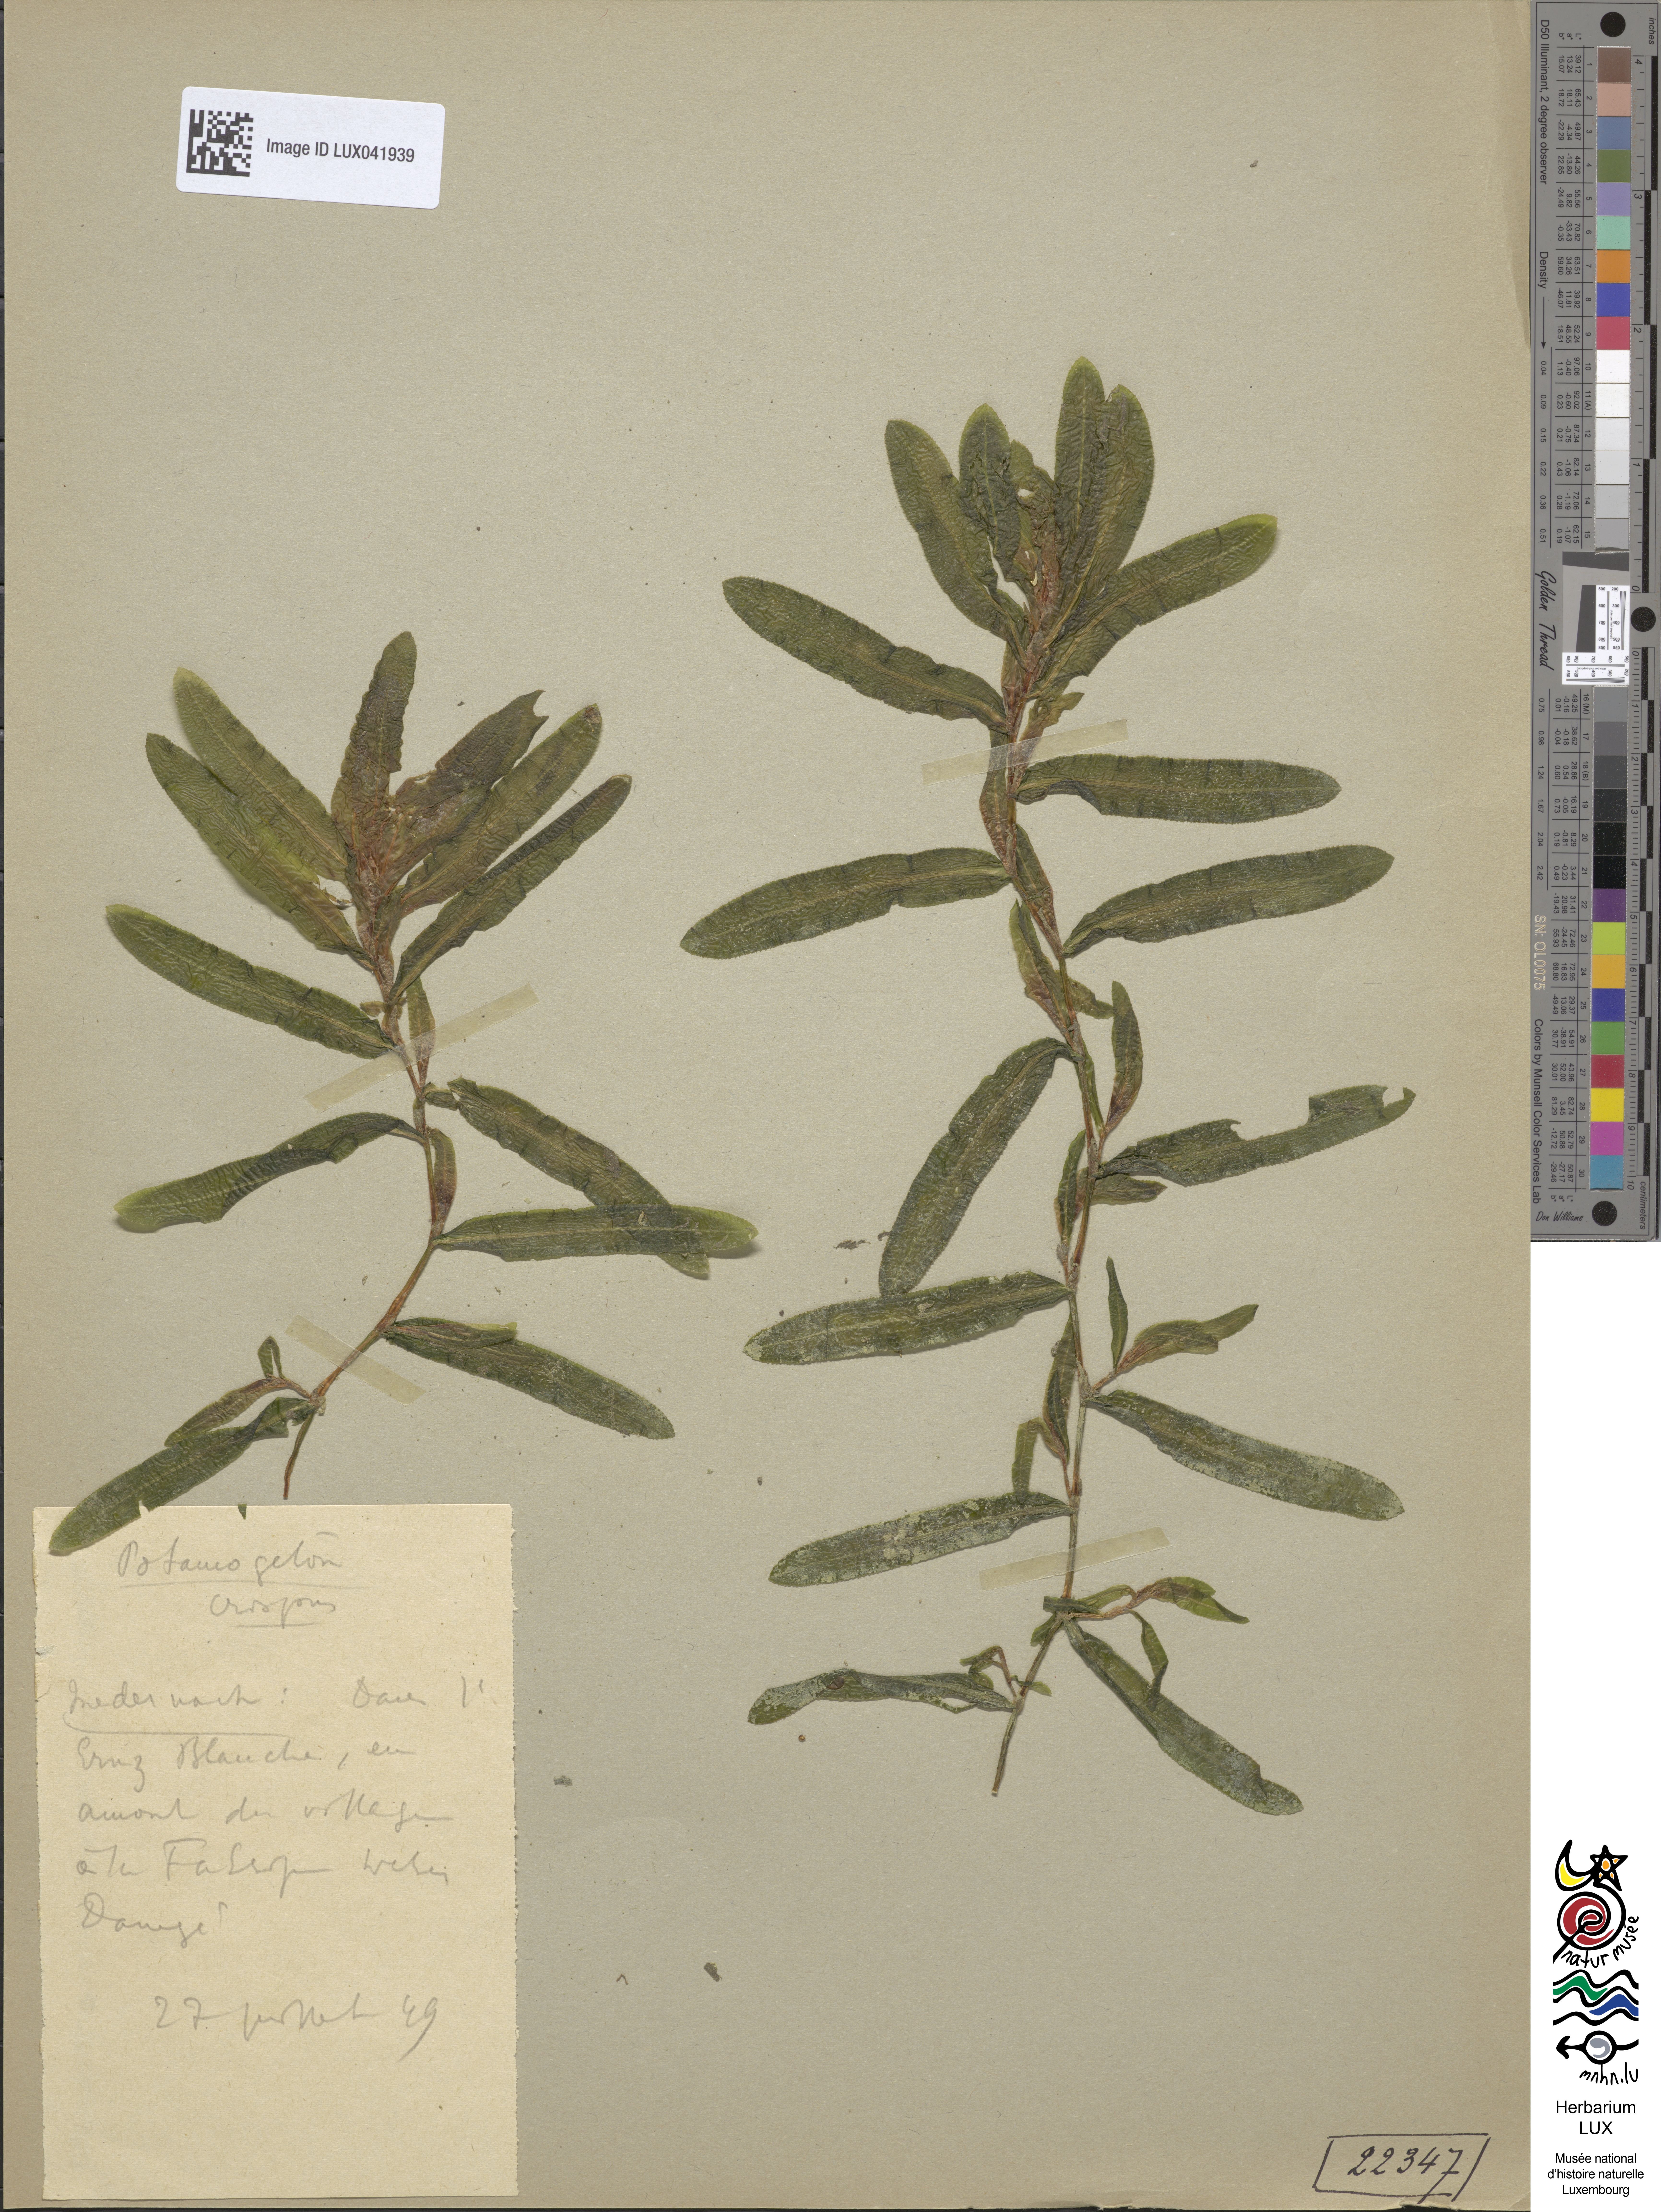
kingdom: Plantae
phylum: Tracheophyta
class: Liliopsida
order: Alismatales
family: Potamogetonaceae
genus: Potamogeton
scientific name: Potamogeton crispus
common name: Curled pondweed
